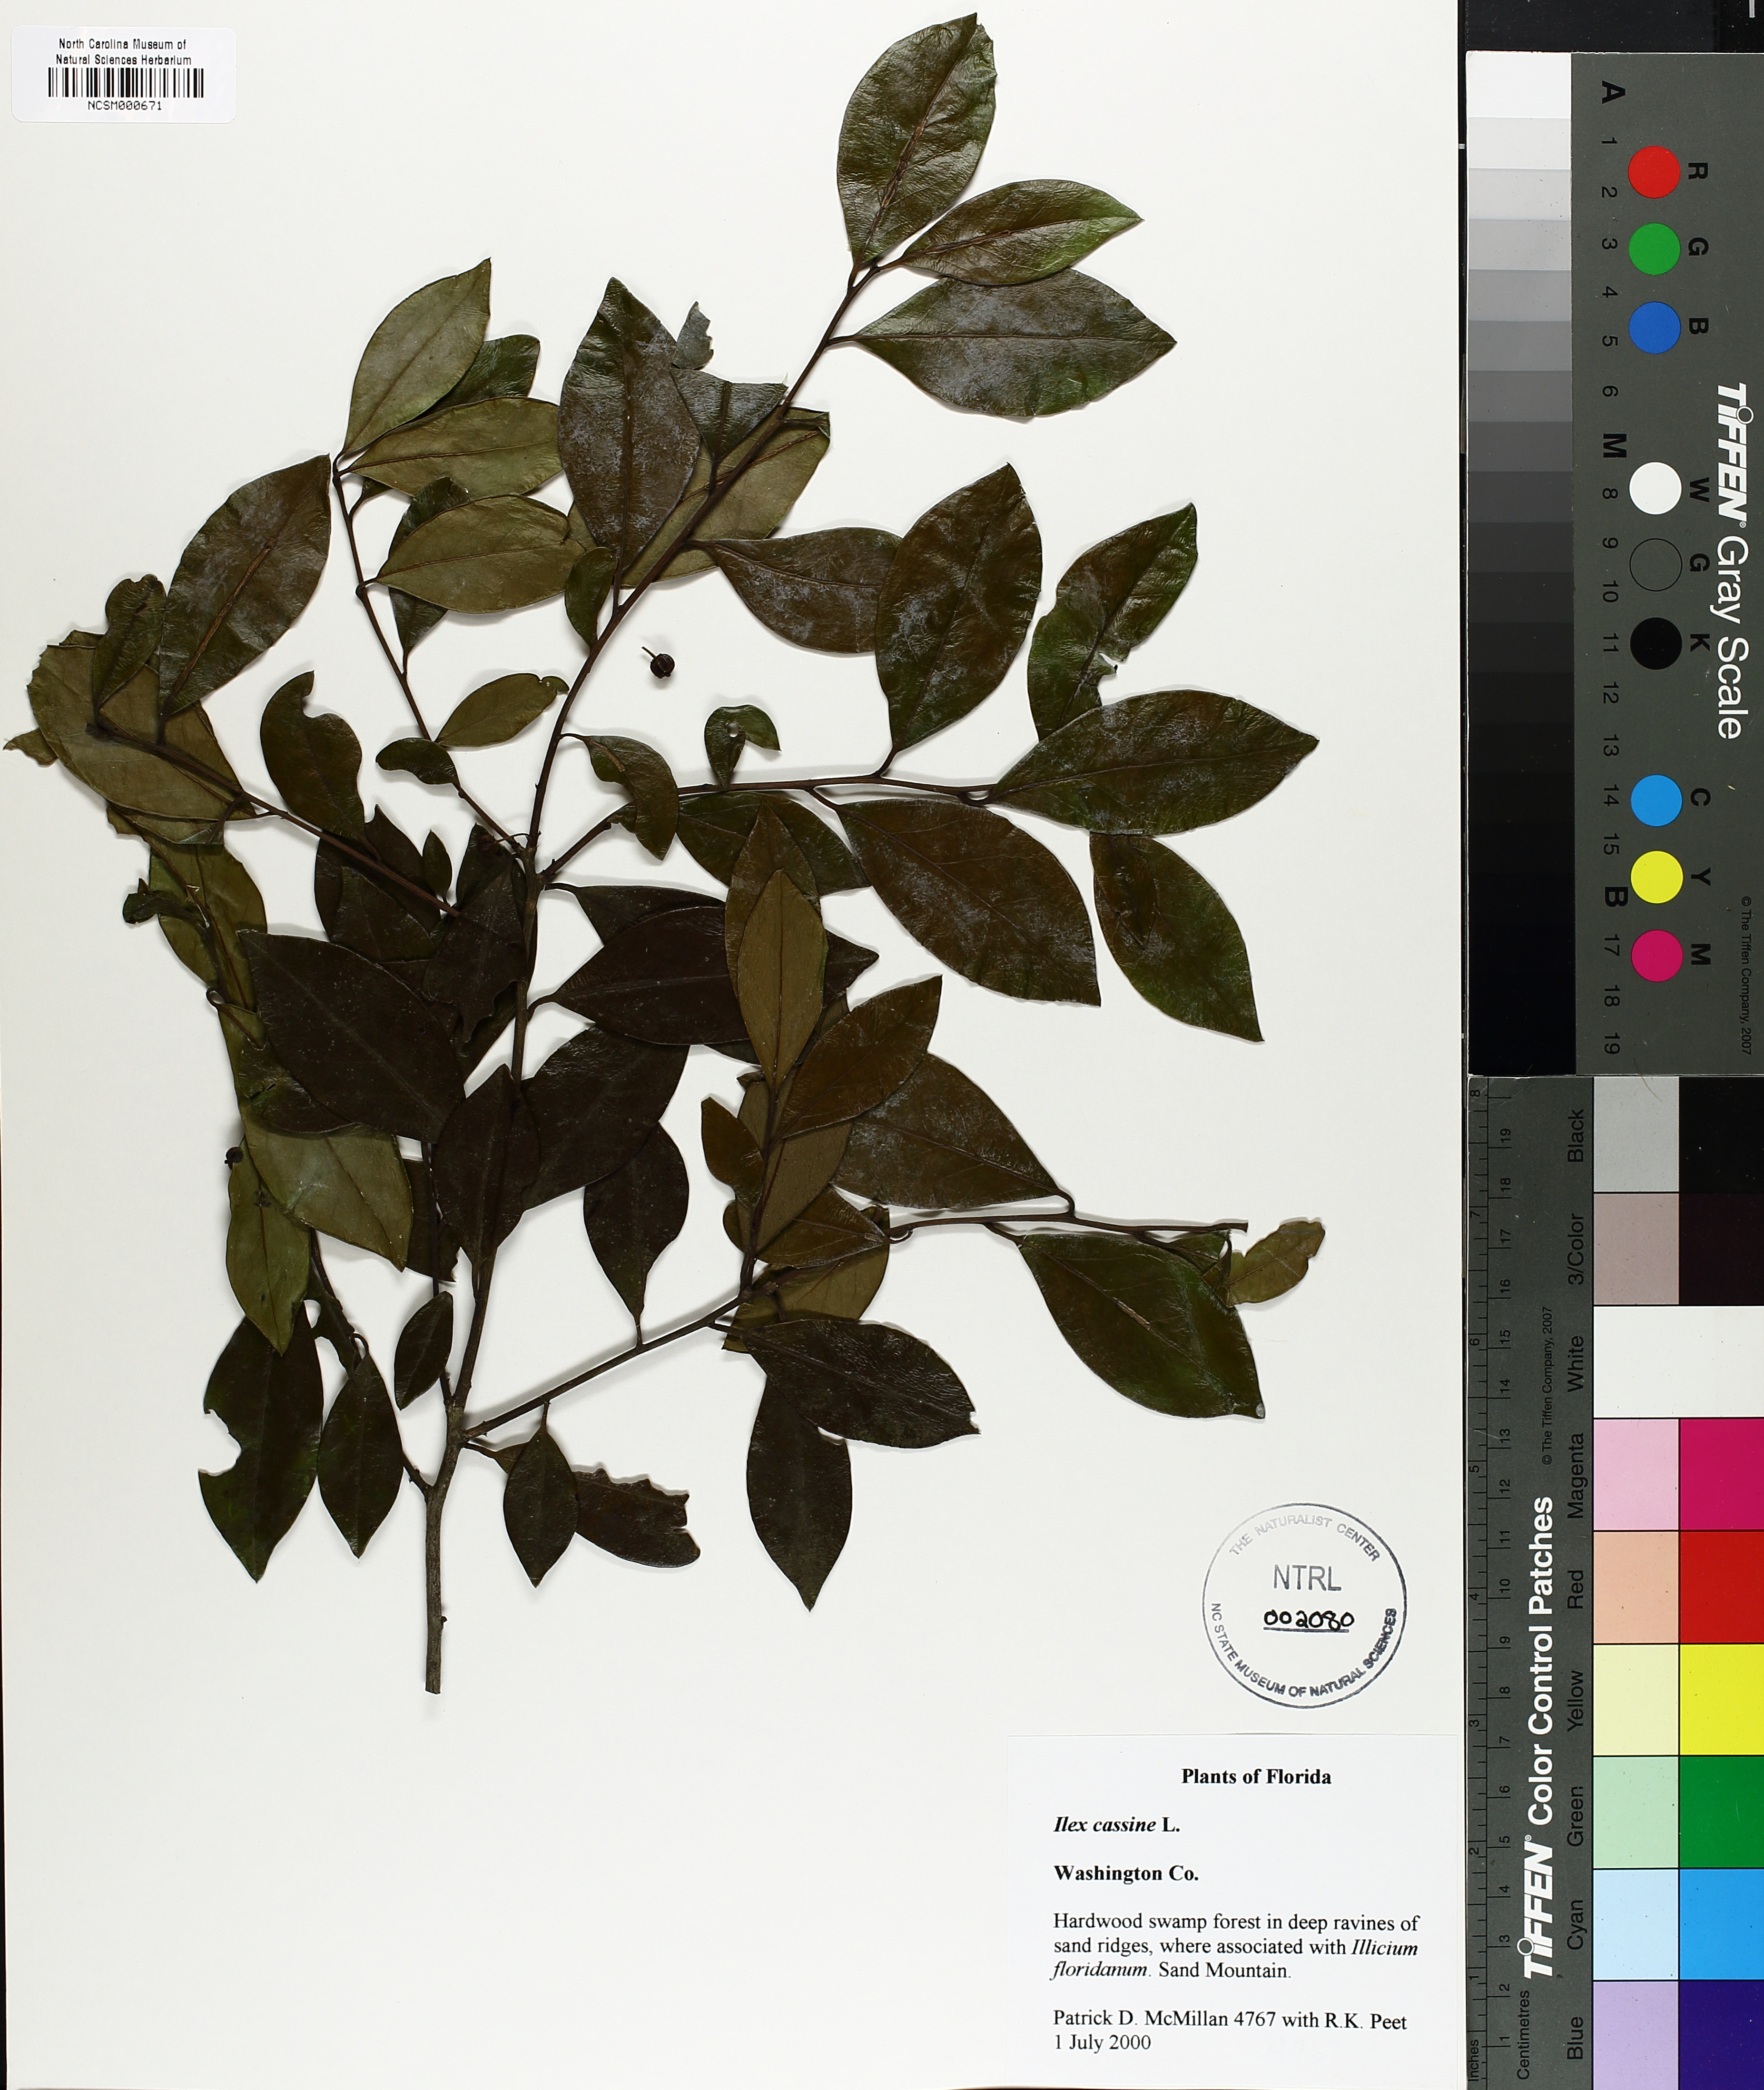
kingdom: Plantae
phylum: Tracheophyta
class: Magnoliopsida
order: Aquifoliales
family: Aquifoliaceae
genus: Ilex
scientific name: Ilex cassine
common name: Dahoon
